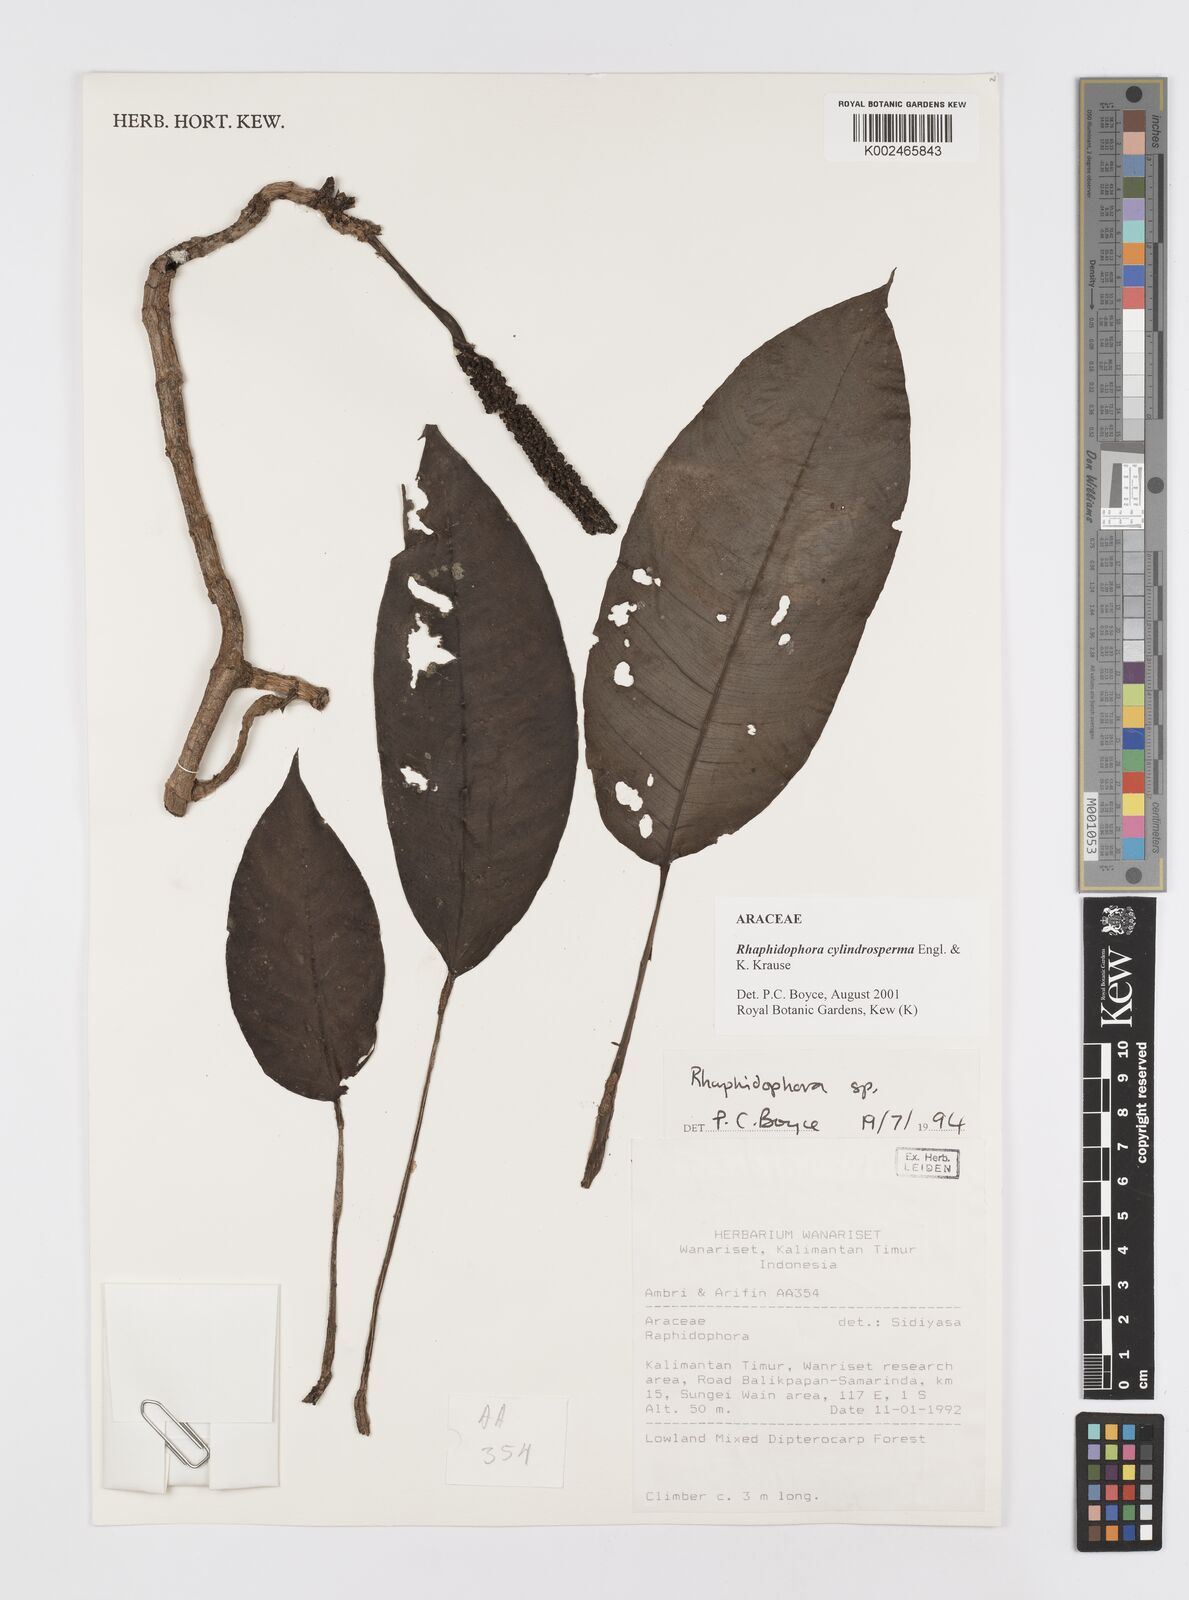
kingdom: Plantae
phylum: Tracheophyta
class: Liliopsida
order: Alismatales
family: Araceae
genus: Rhaphidophora
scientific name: Rhaphidophora cylindrosperma
